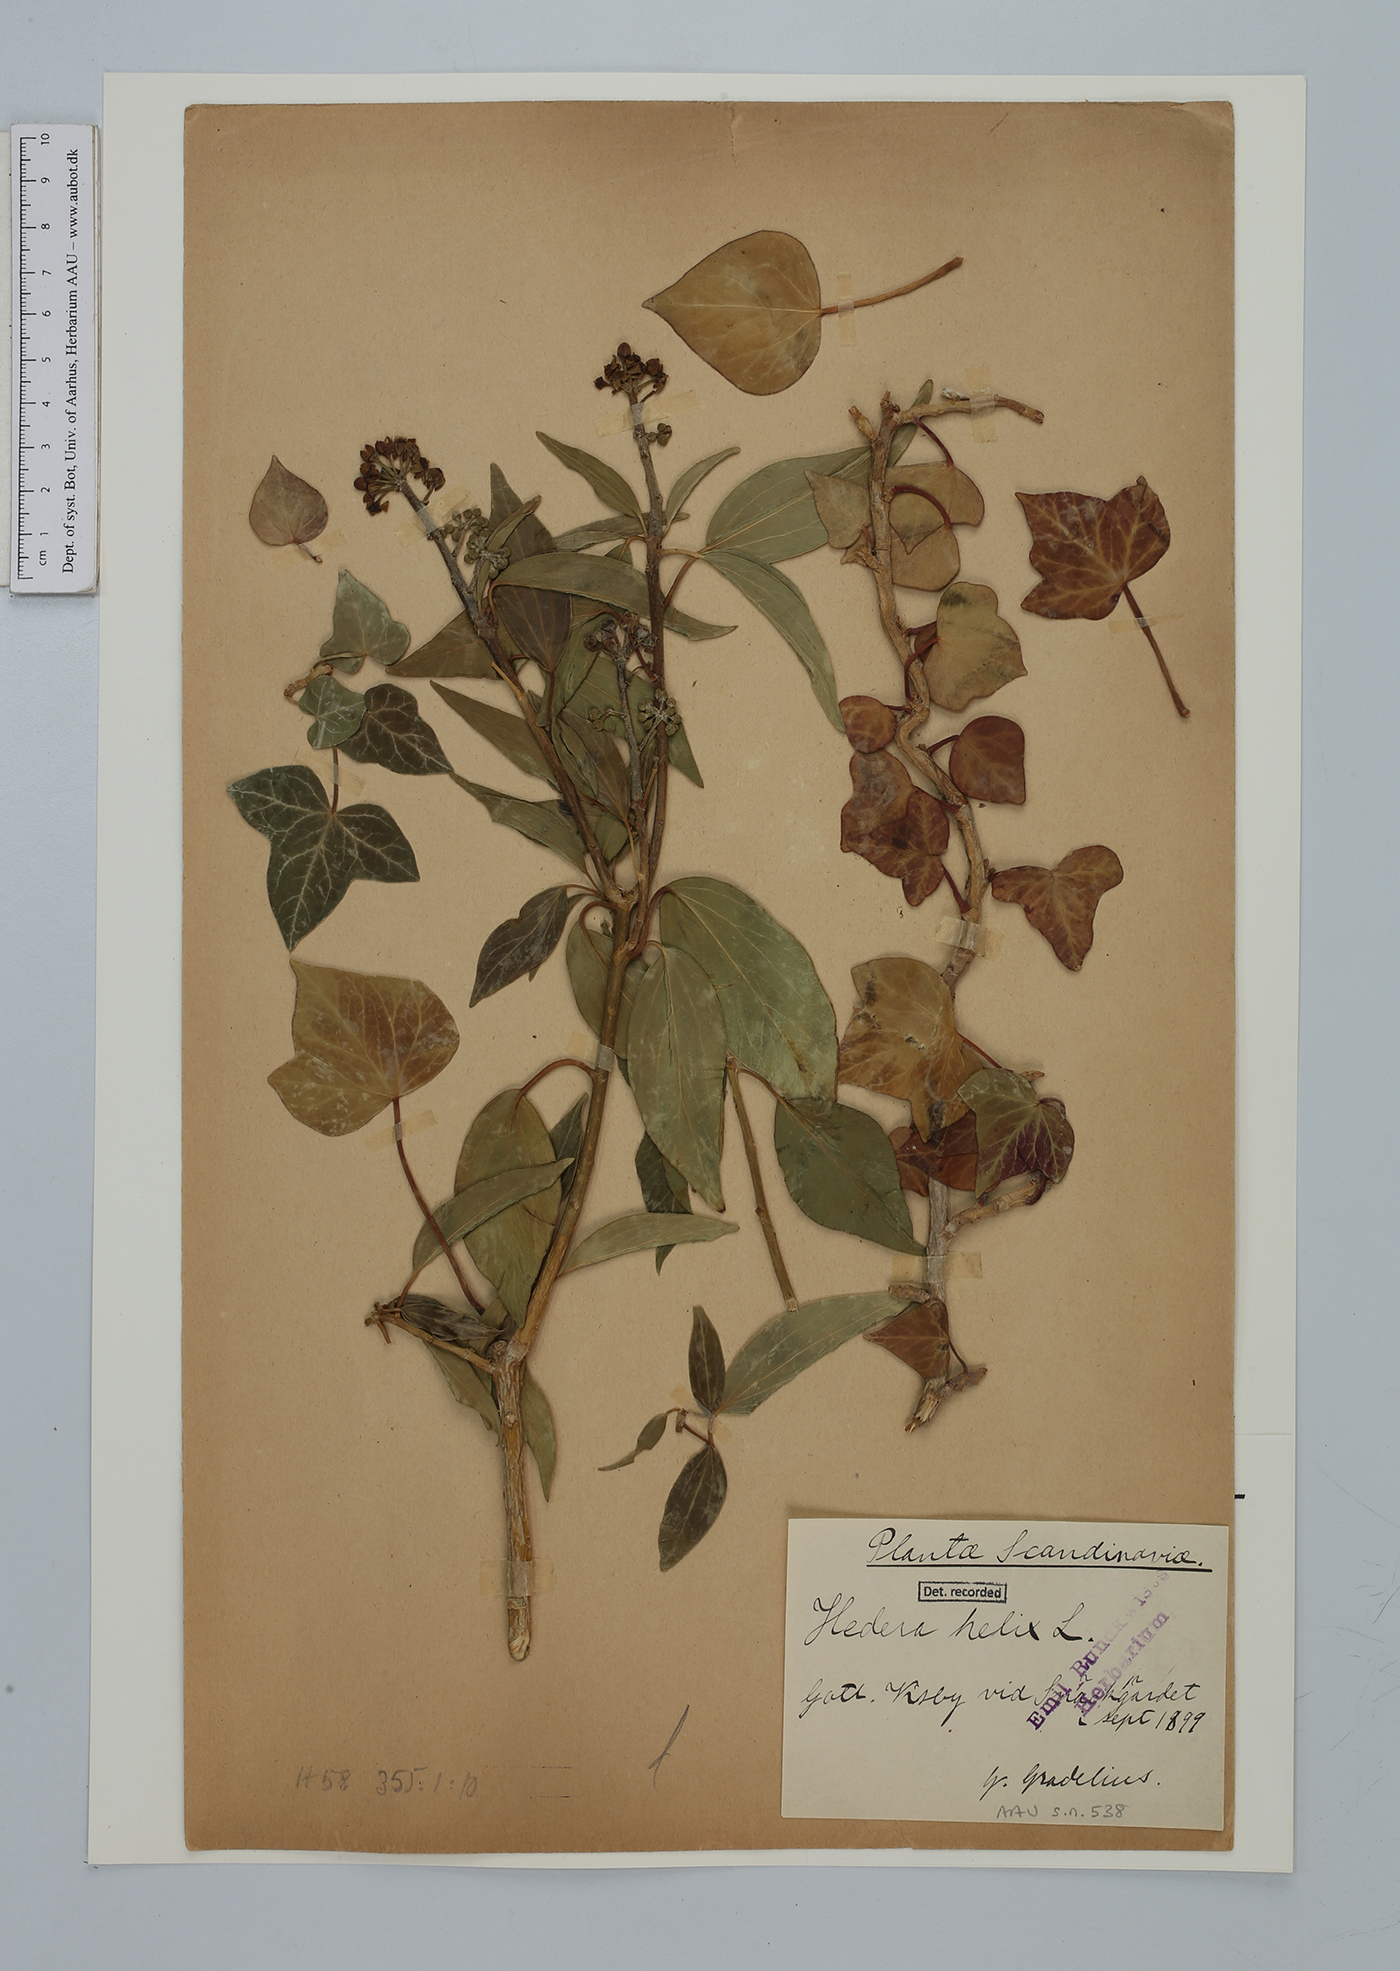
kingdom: Plantae
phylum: Tracheophyta
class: Magnoliopsida
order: Apiales
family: Araliaceae
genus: Hedera
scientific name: Hedera helix
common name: Ivy
